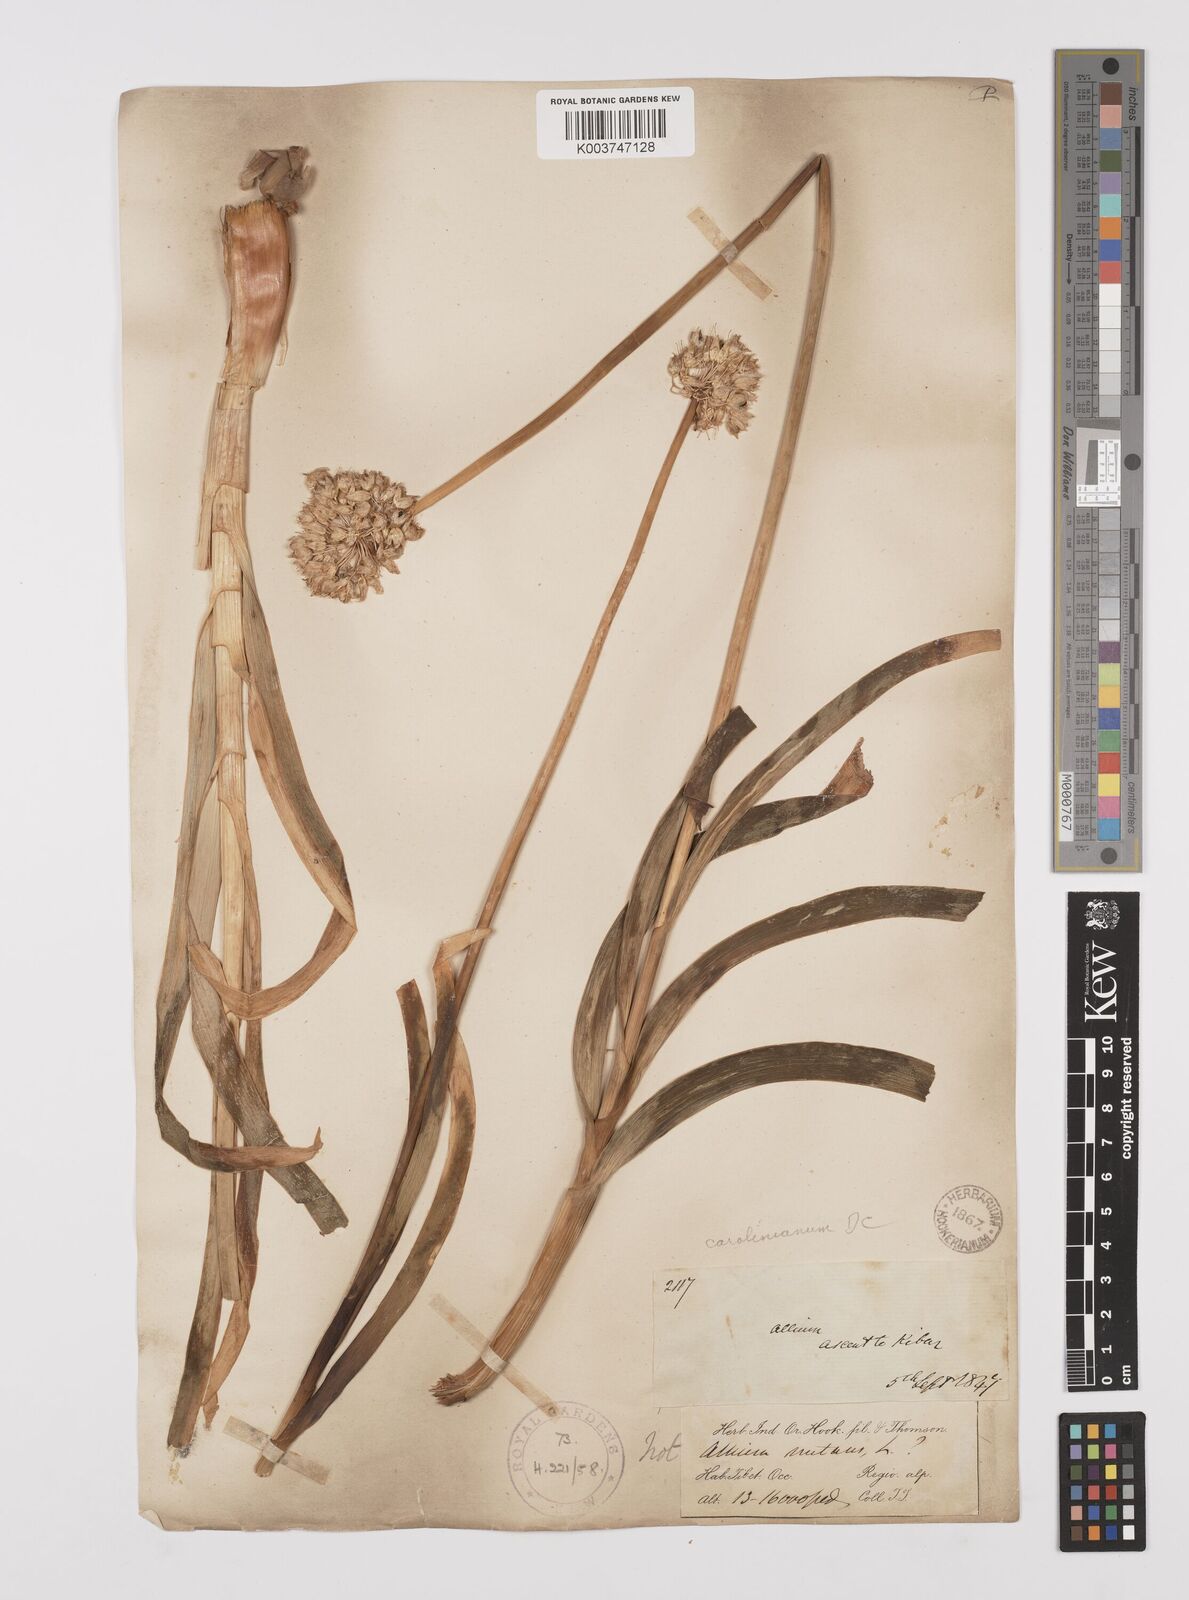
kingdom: Plantae
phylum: Tracheophyta
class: Liliopsida
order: Asparagales
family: Amaryllidaceae
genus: Allium
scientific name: Allium carolinianum
